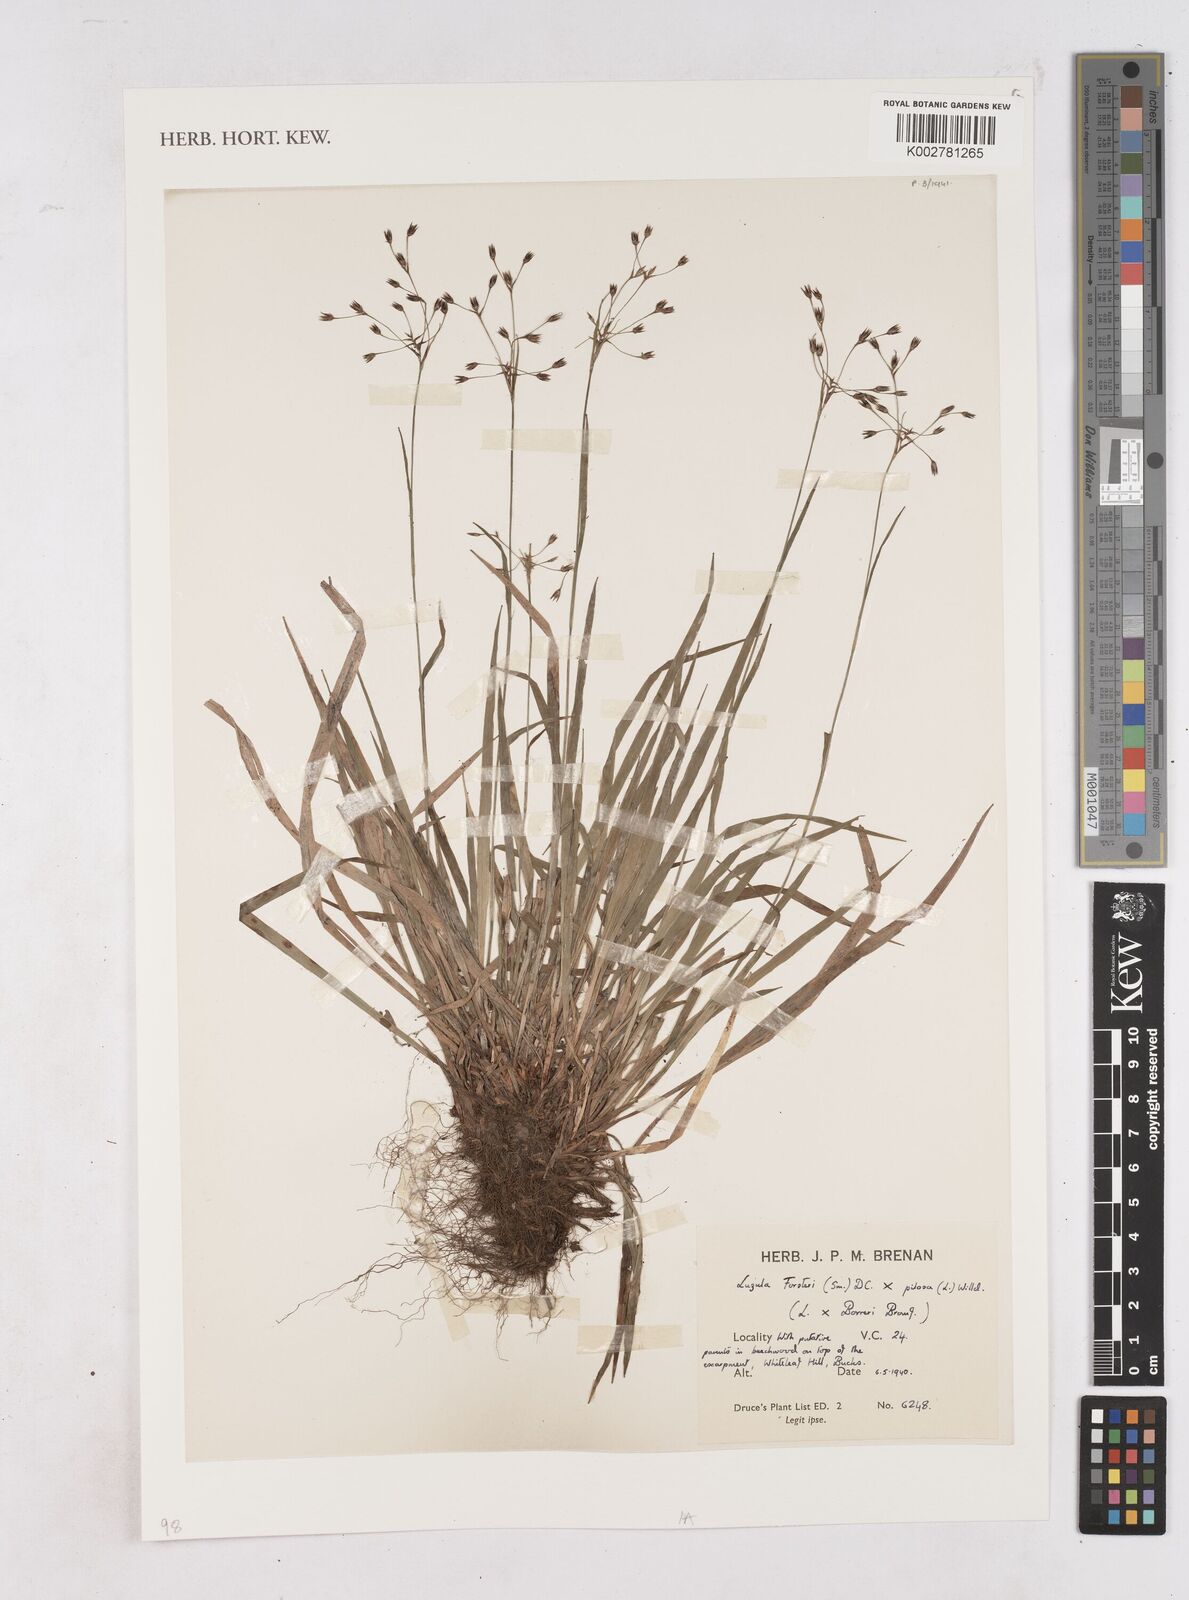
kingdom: Plantae
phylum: Tracheophyta
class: Liliopsida
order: Poales
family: Juncaceae
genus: Luzula
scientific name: Luzula borreri
